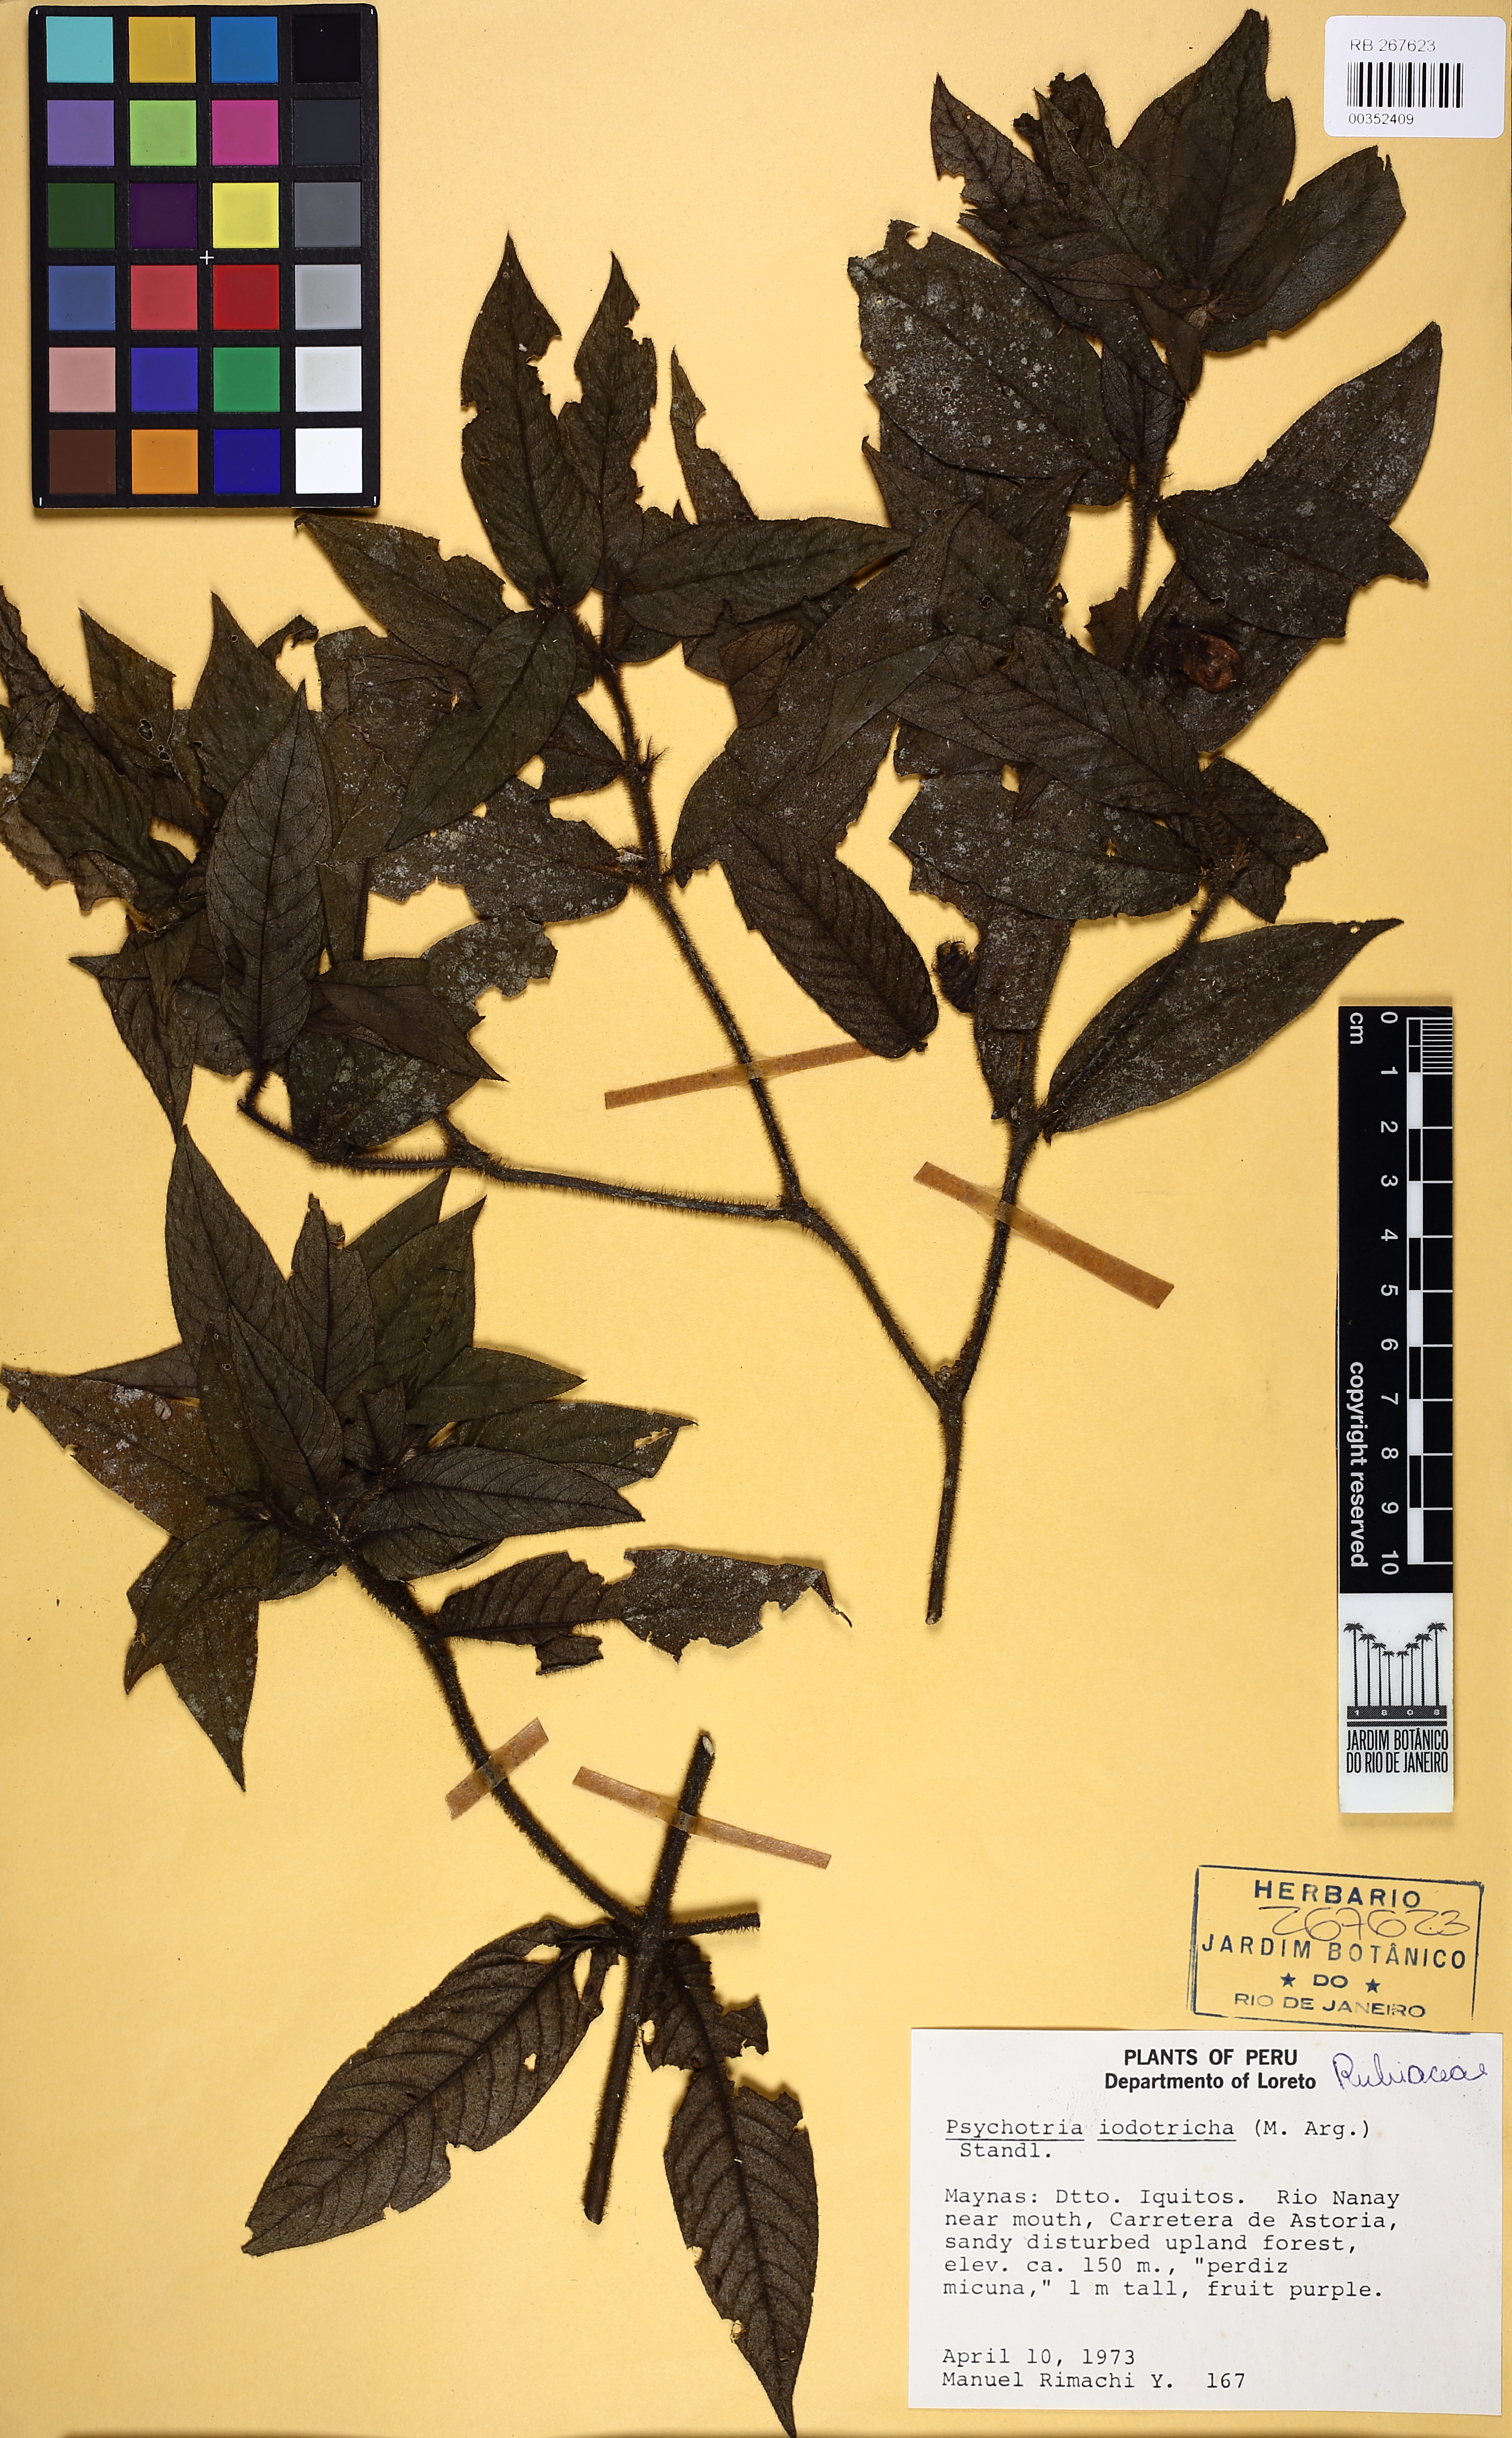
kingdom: Plantae
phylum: Tracheophyta
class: Magnoliopsida
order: Gentianales
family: Rubiaceae
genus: Palicourea
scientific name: Palicourea iodotricha
